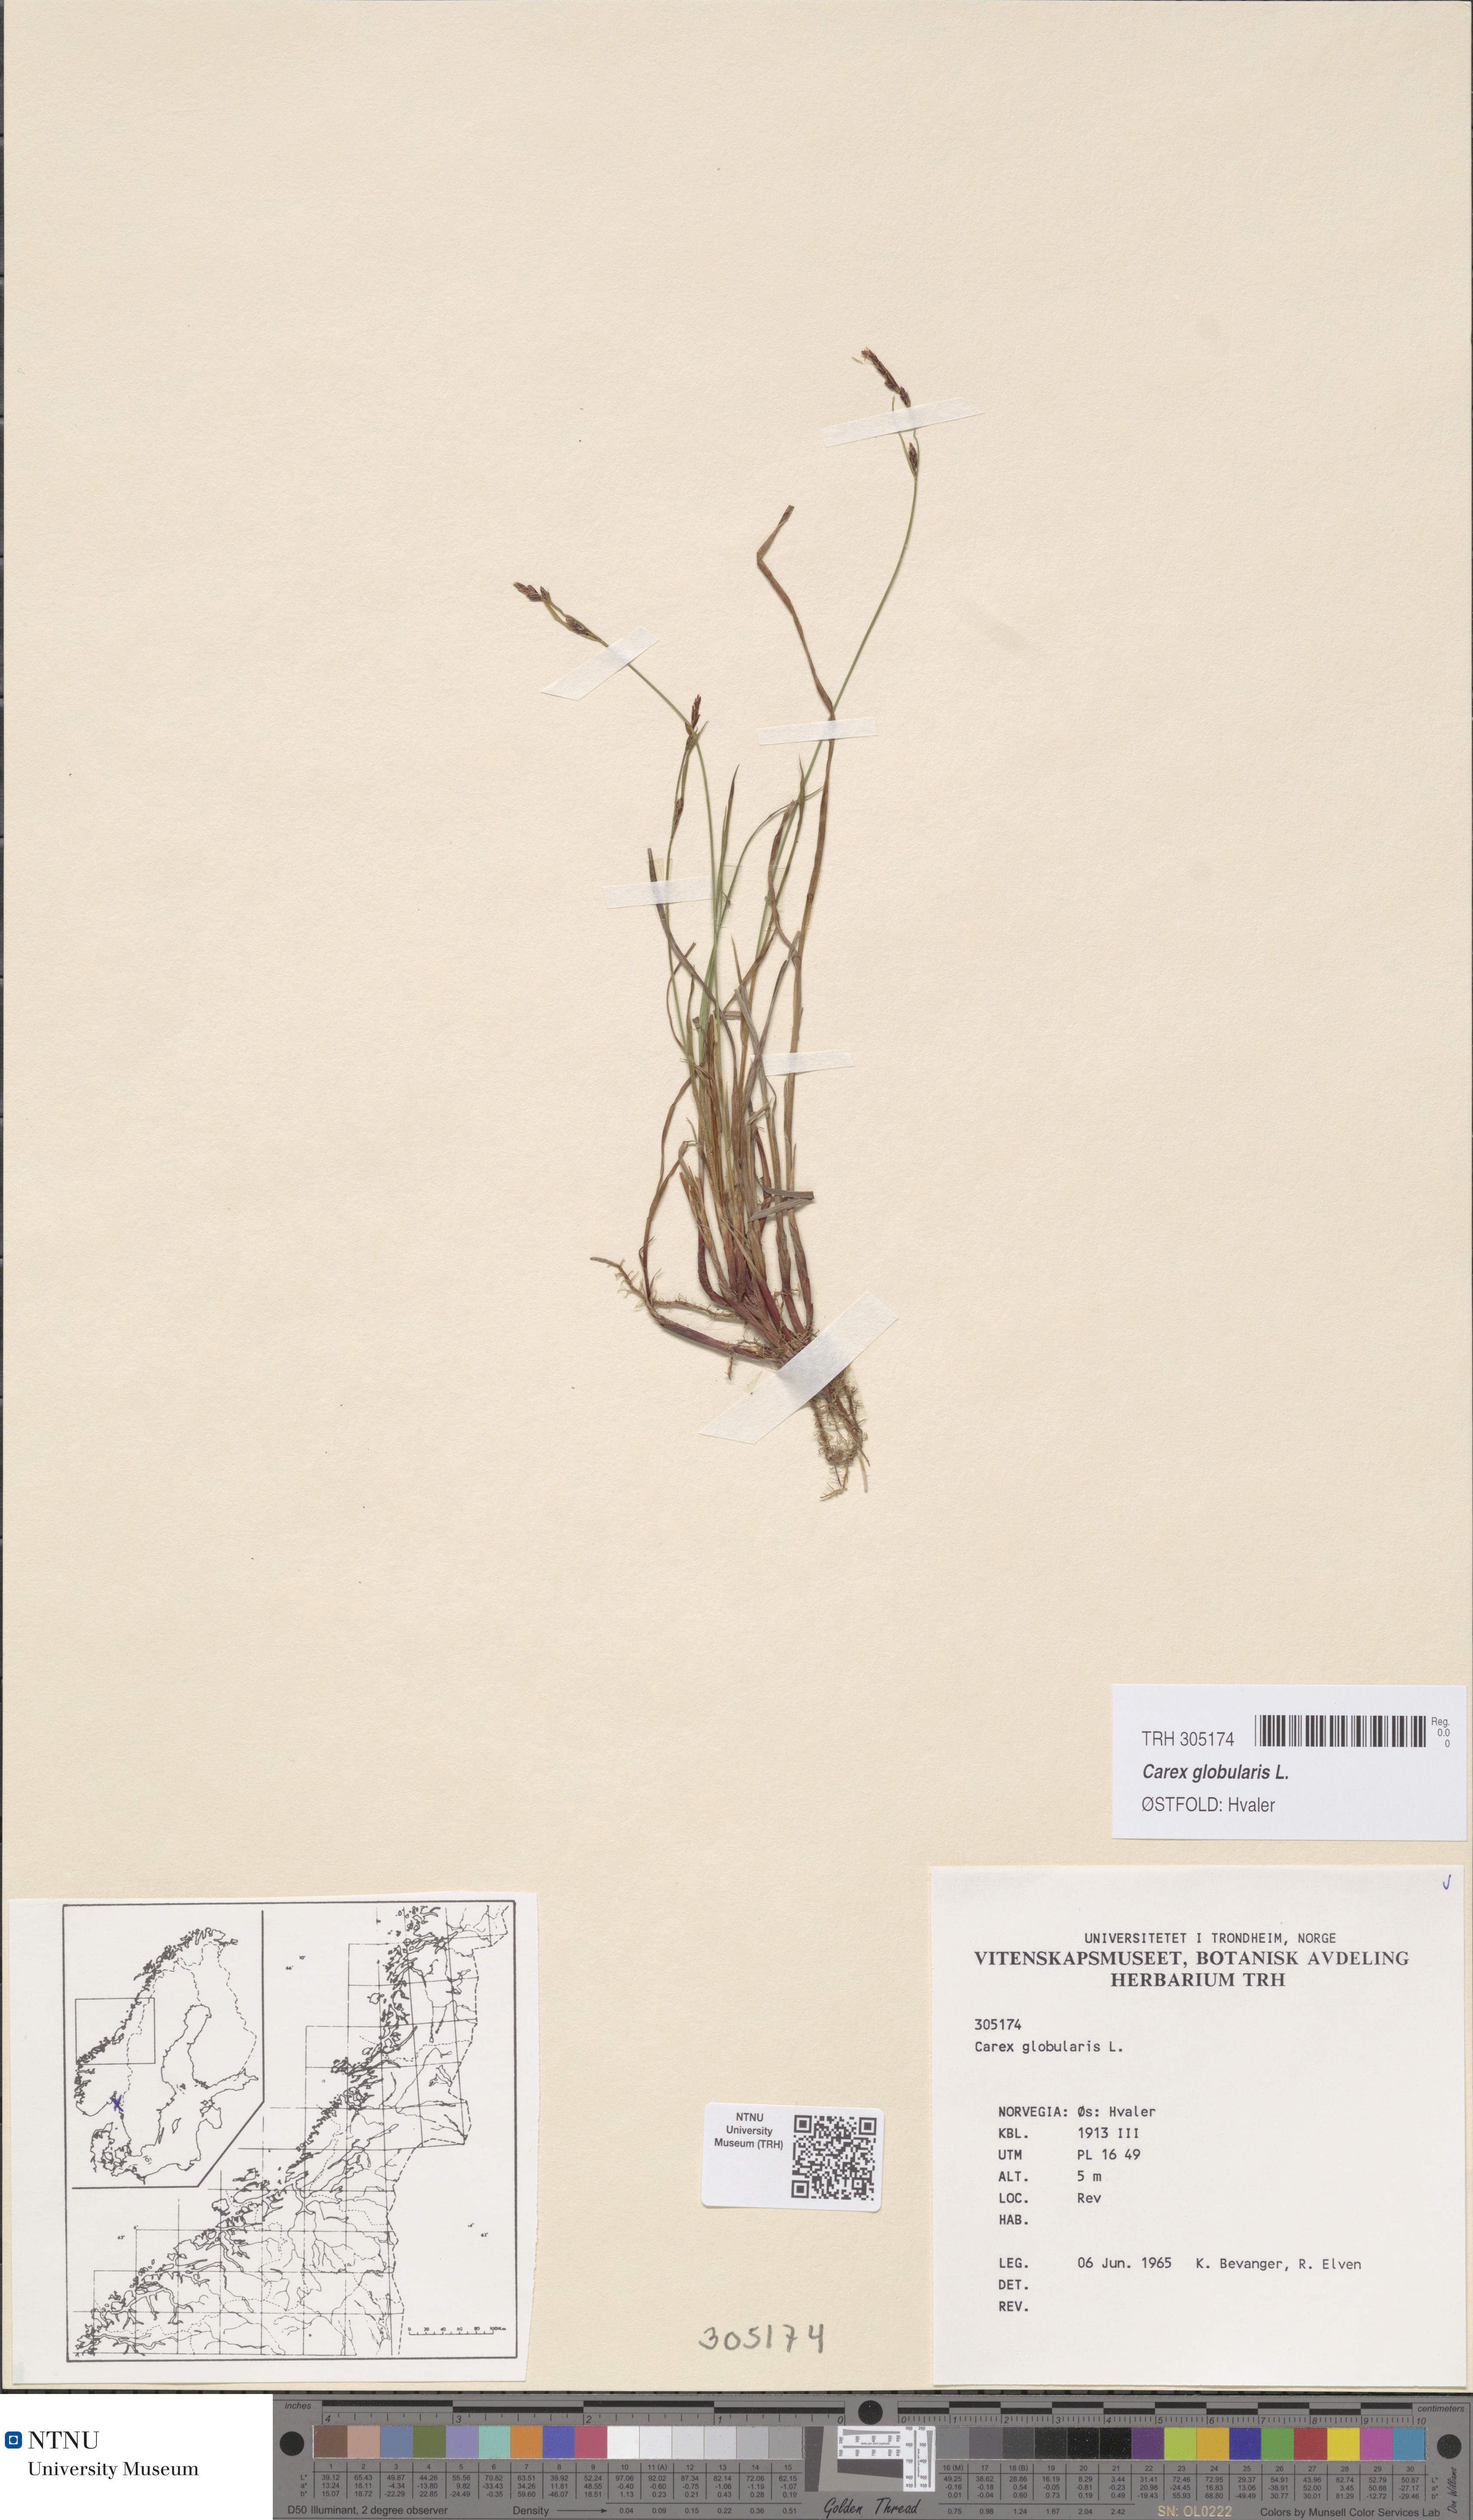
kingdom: Plantae
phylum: Tracheophyta
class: Liliopsida
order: Poales
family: Cyperaceae
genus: Carex
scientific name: Carex globularis
